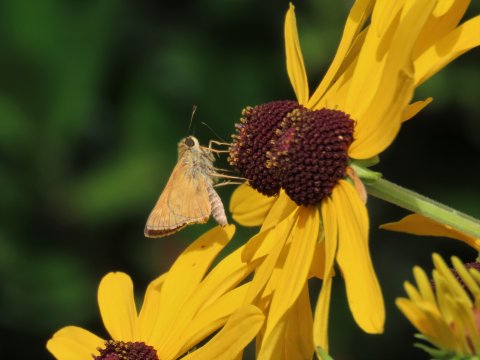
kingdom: Animalia
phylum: Arthropoda
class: Insecta
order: Lepidoptera
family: Hesperiidae
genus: Atalopedes
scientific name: Atalopedes campestris
